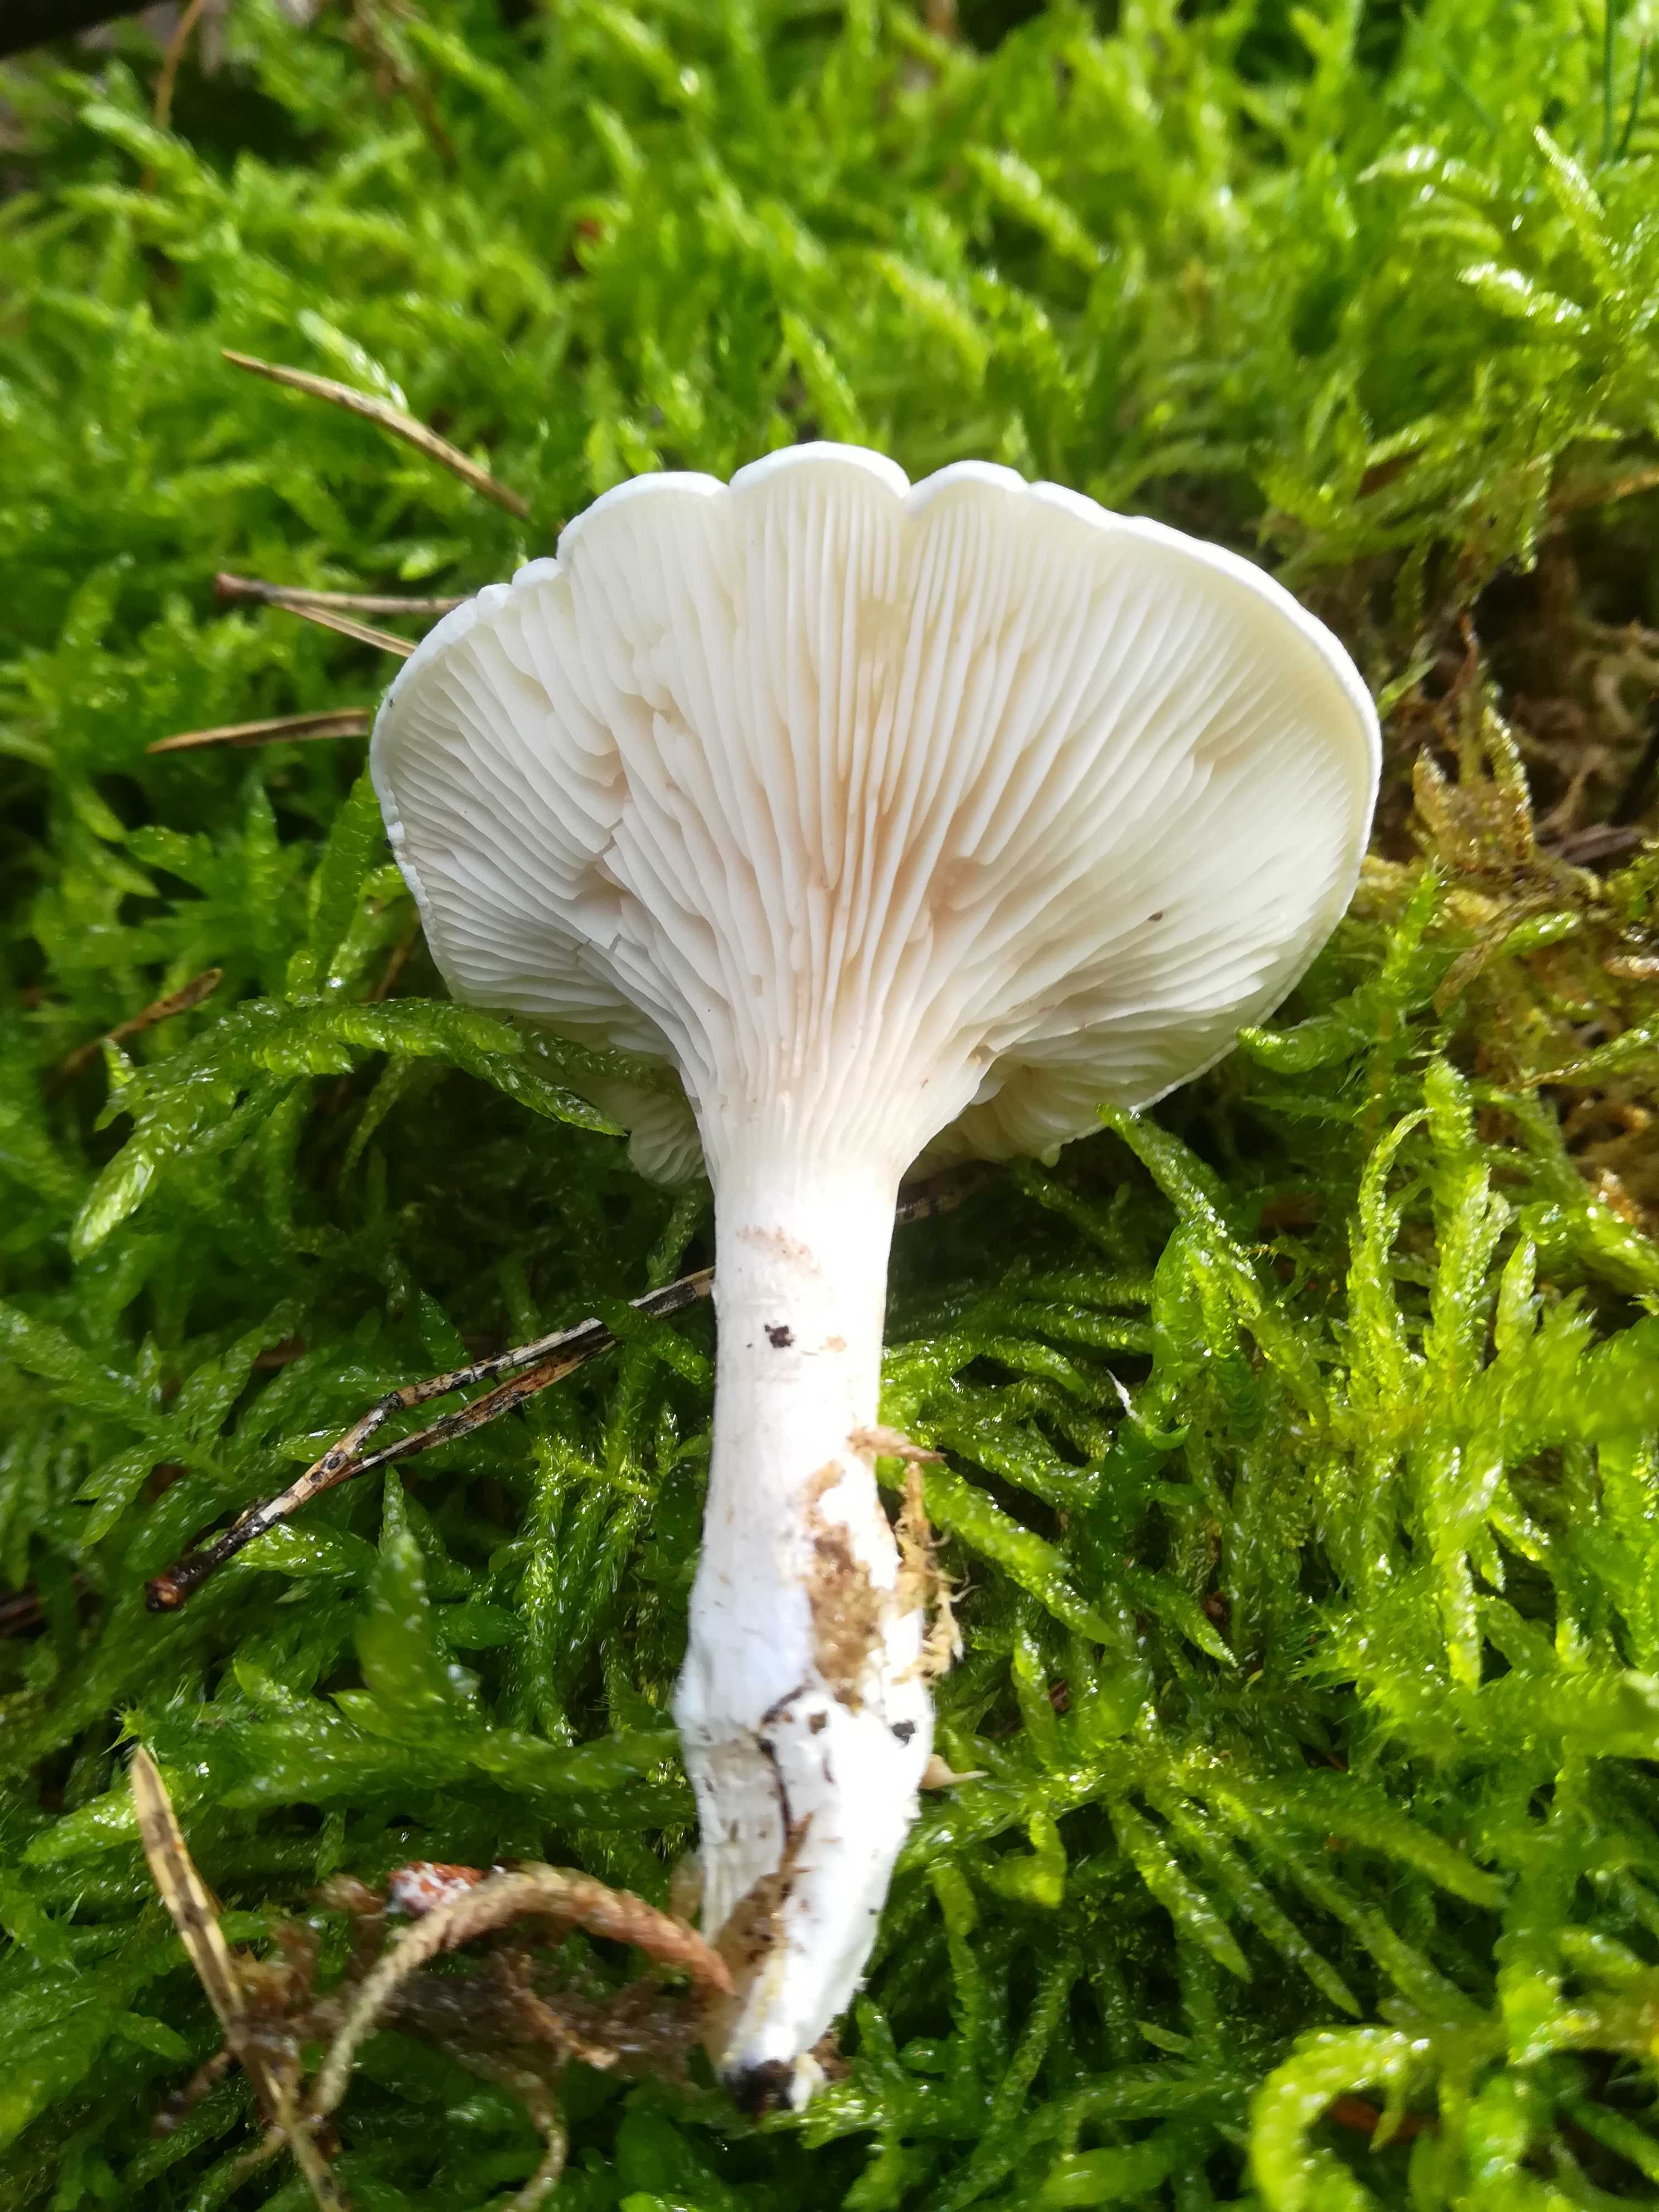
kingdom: Fungi
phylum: Basidiomycota
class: Agaricomycetes
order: Agaricales
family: Entolomataceae
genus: Clitopilus
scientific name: Clitopilus prunulus
